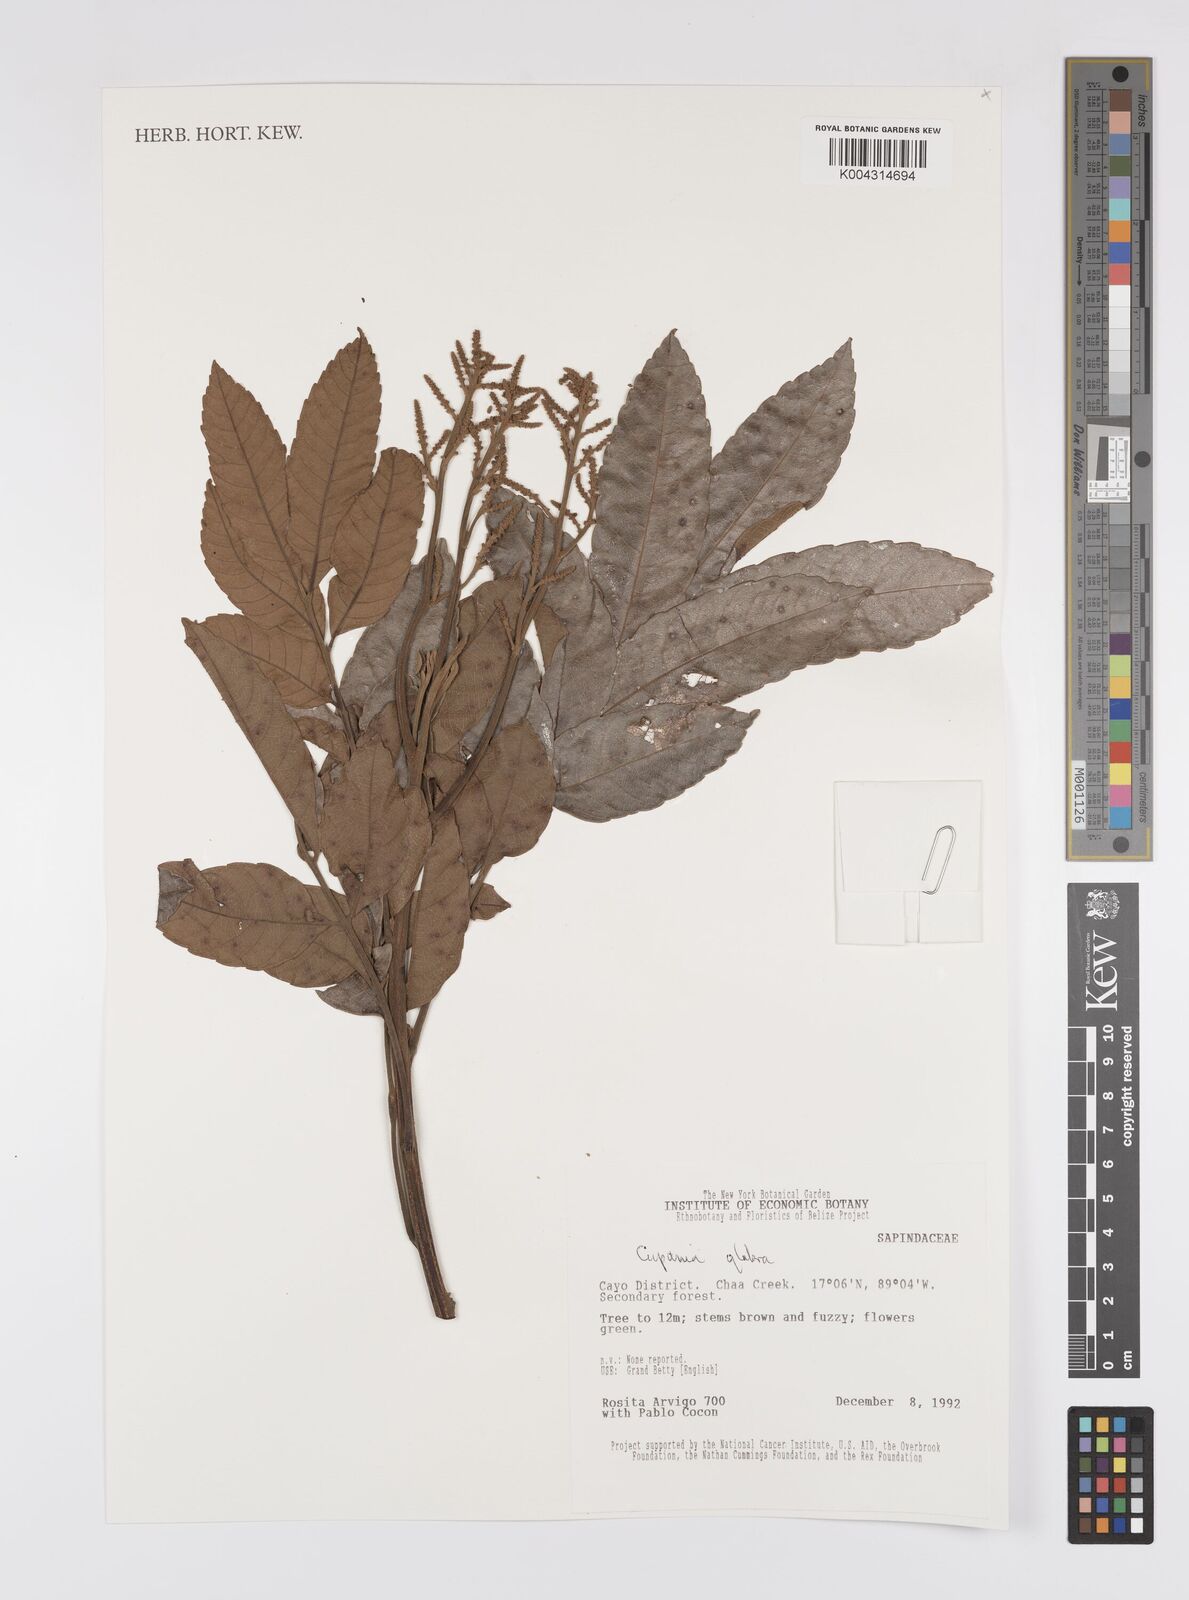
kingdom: Plantae
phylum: Tracheophyta
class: Magnoliopsida
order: Sapindales
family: Sapindaceae
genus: Cupania
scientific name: Cupania
